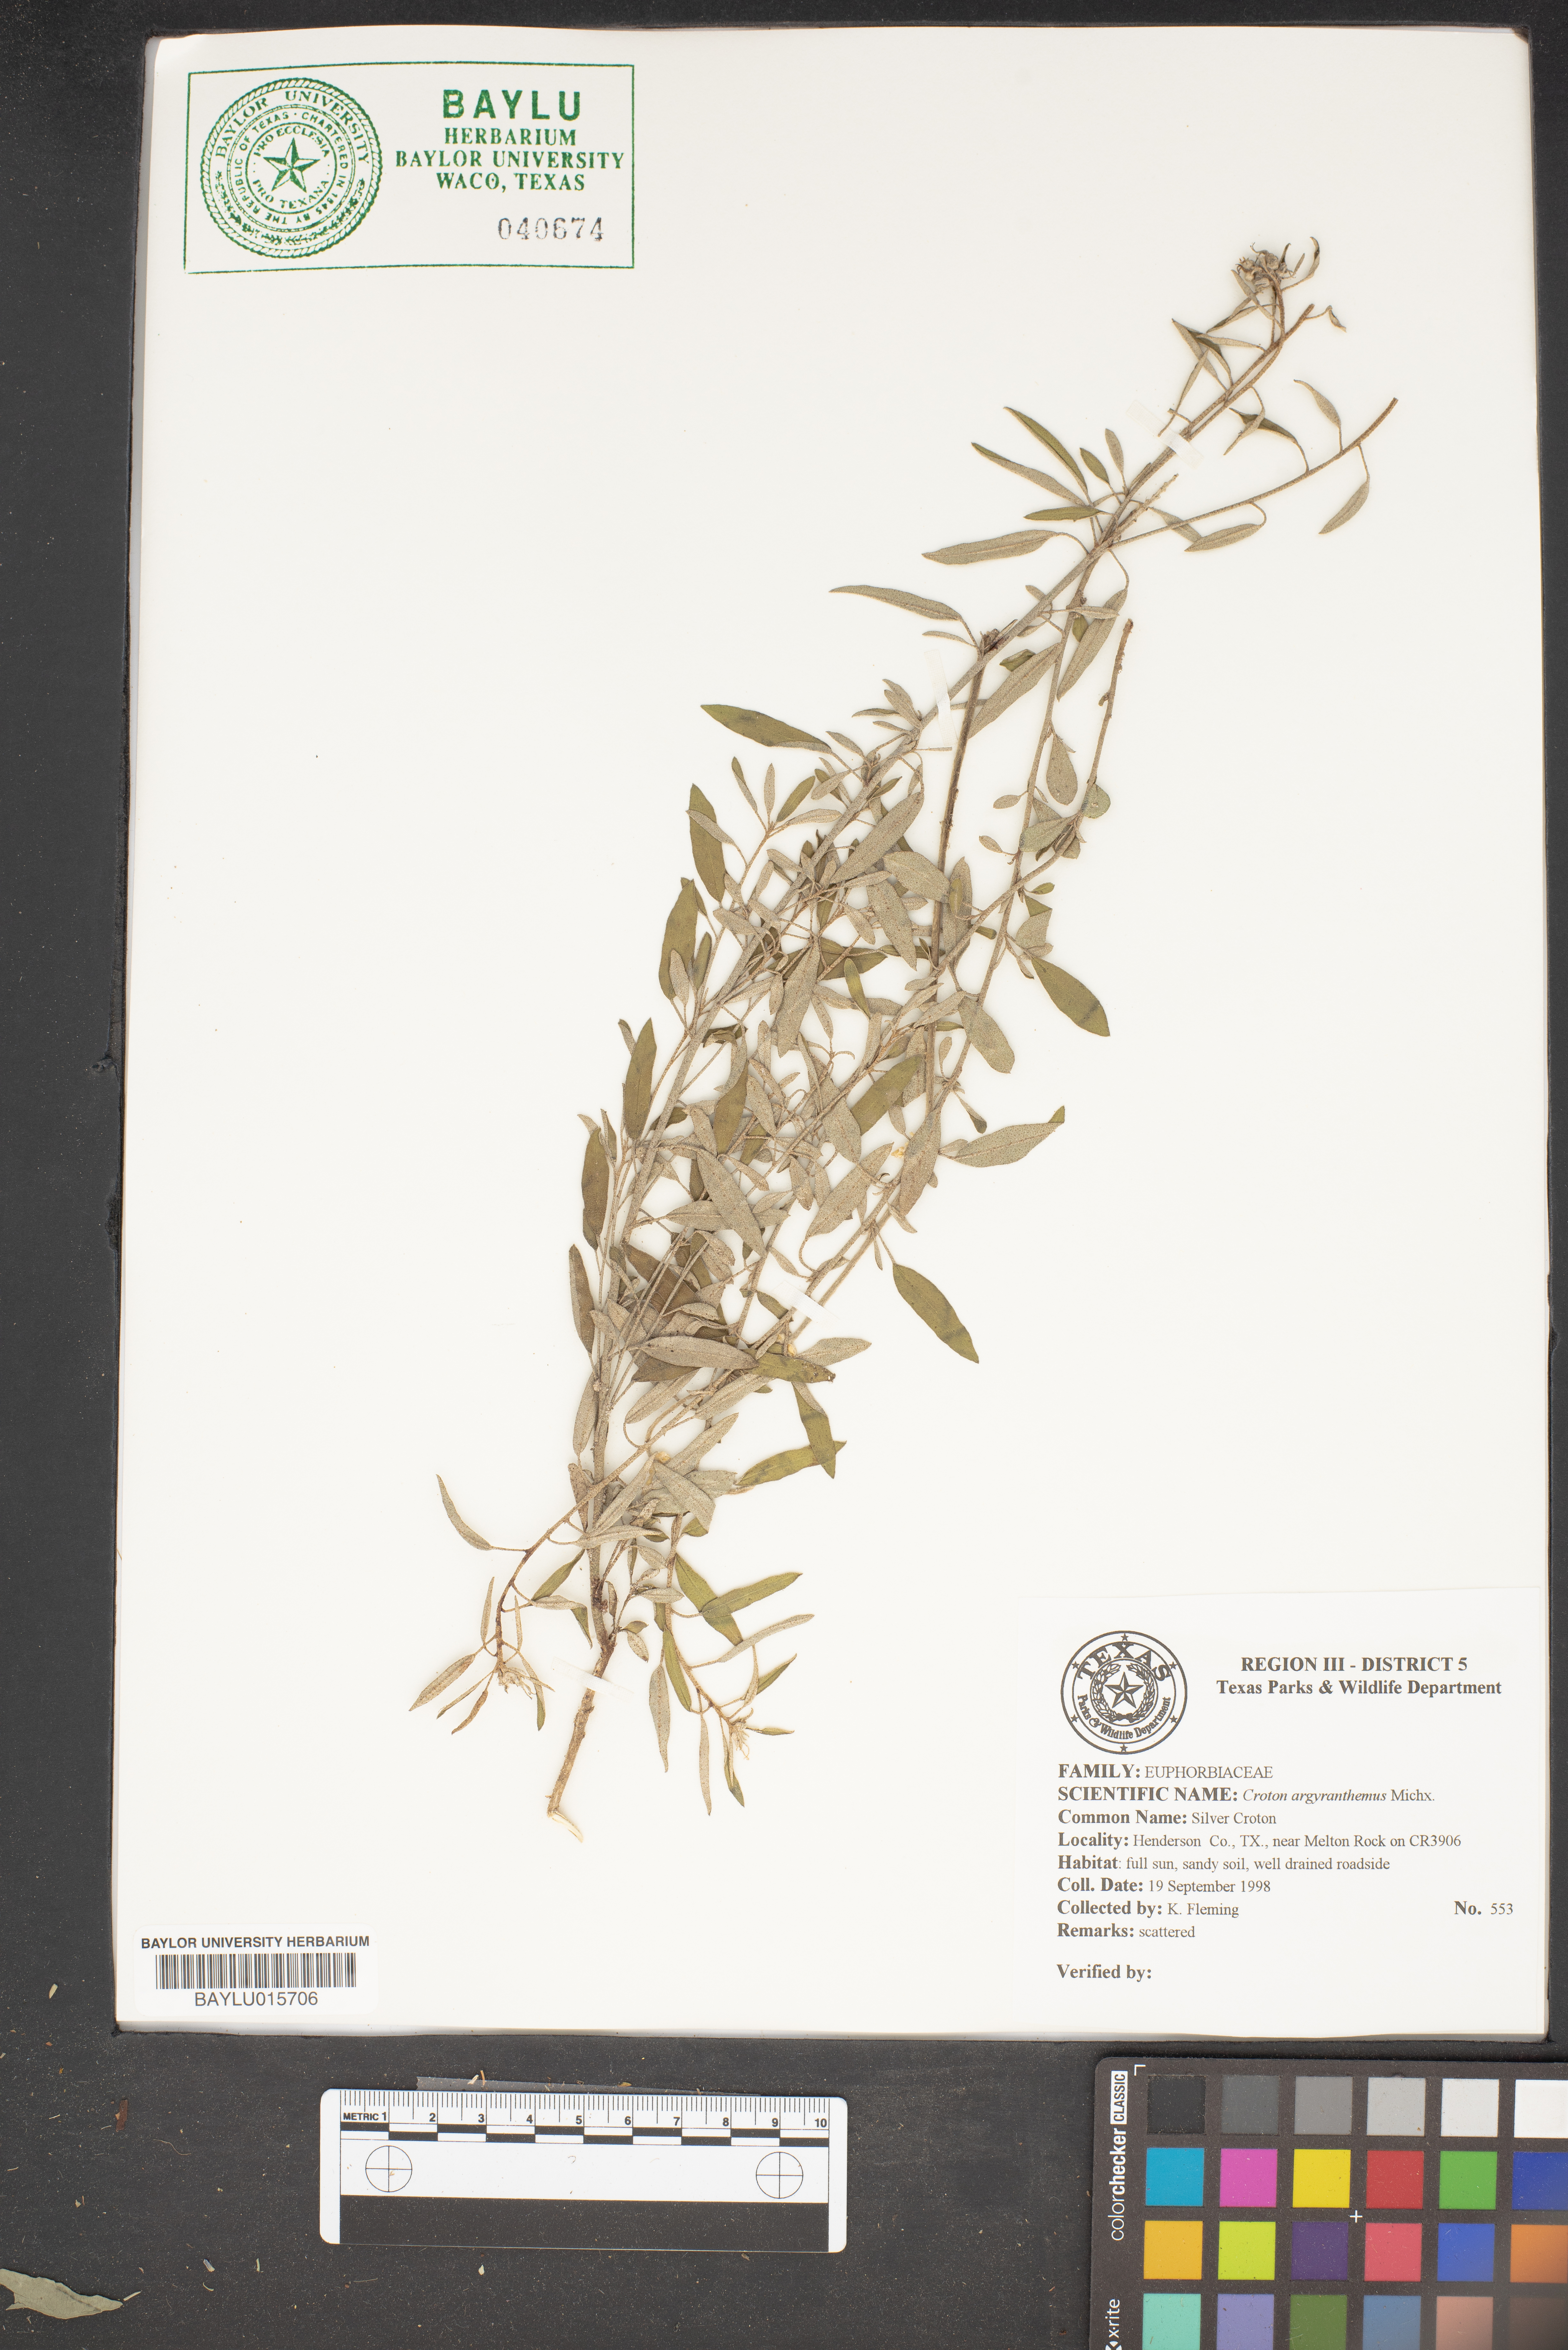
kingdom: Plantae
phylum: Tracheophyta
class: Magnoliopsida
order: Malpighiales
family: Euphorbiaceae
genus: Croton
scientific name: Croton argyranthemus
